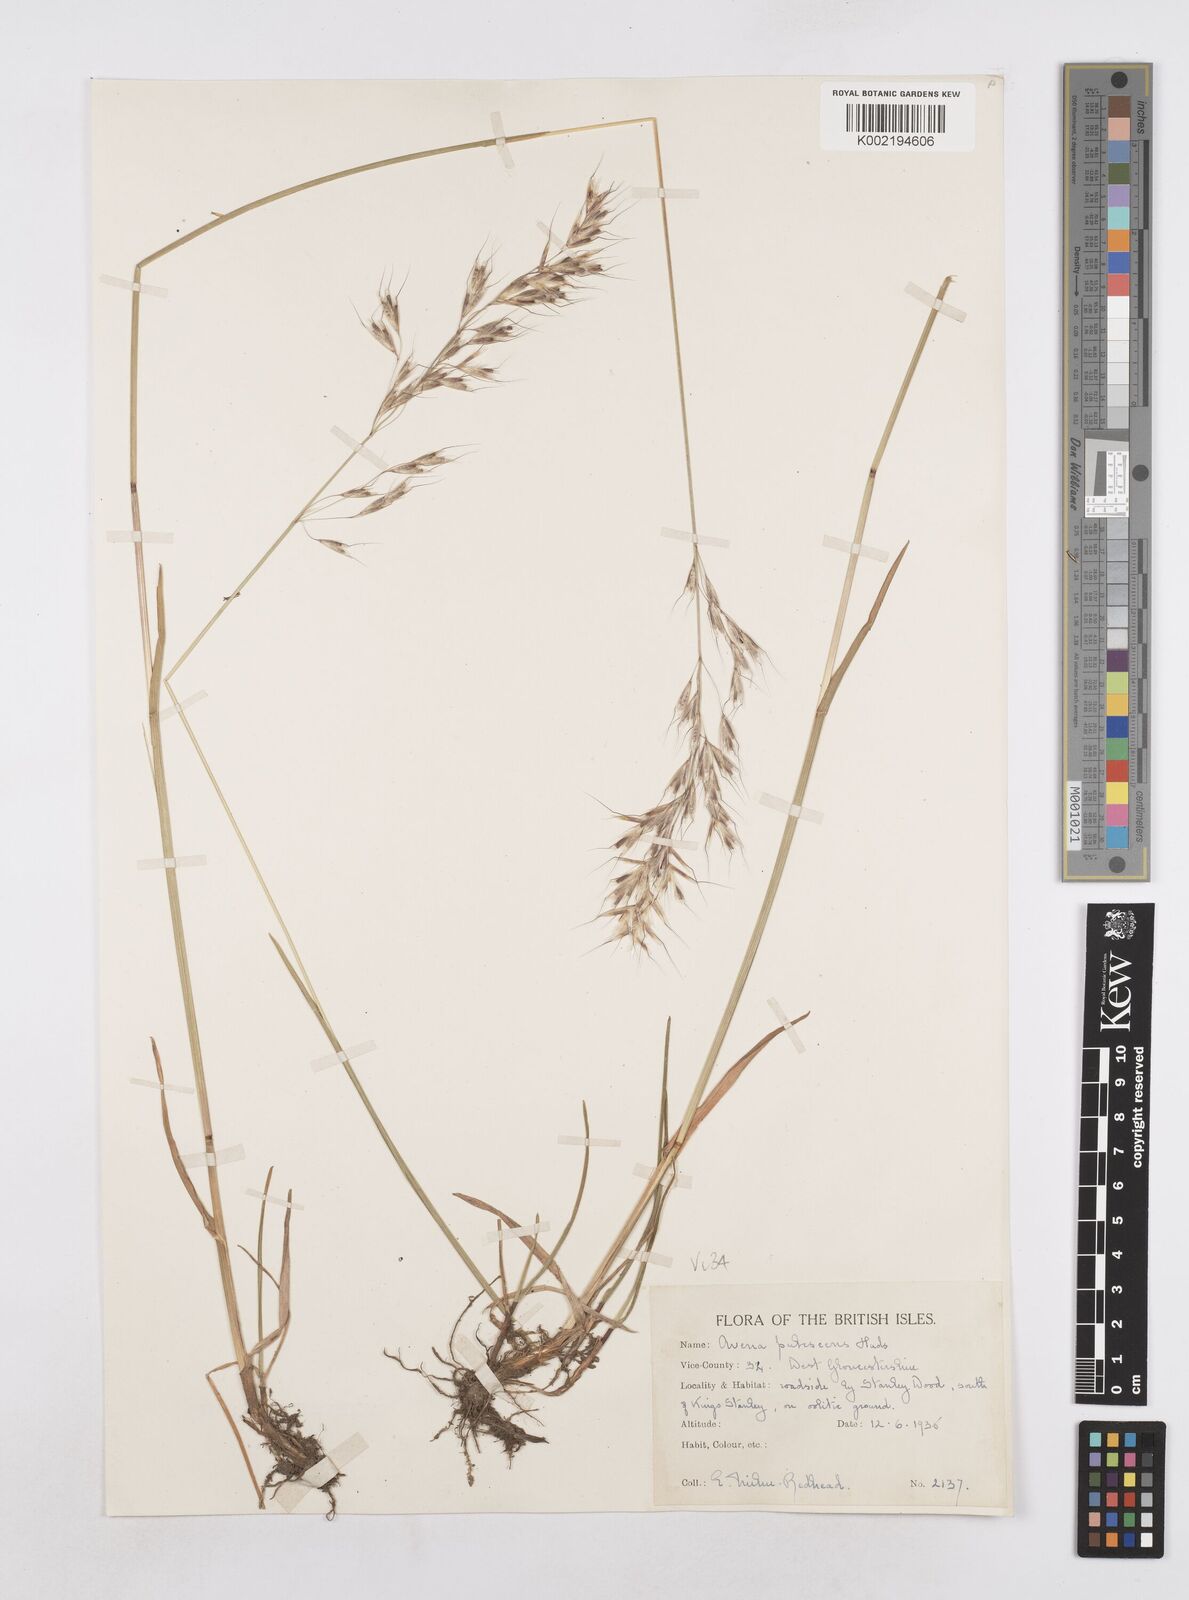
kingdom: Plantae
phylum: Tracheophyta
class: Liliopsida
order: Poales
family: Poaceae
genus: Avenula
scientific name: Avenula pubescens
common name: Downy alpine oatgrass
